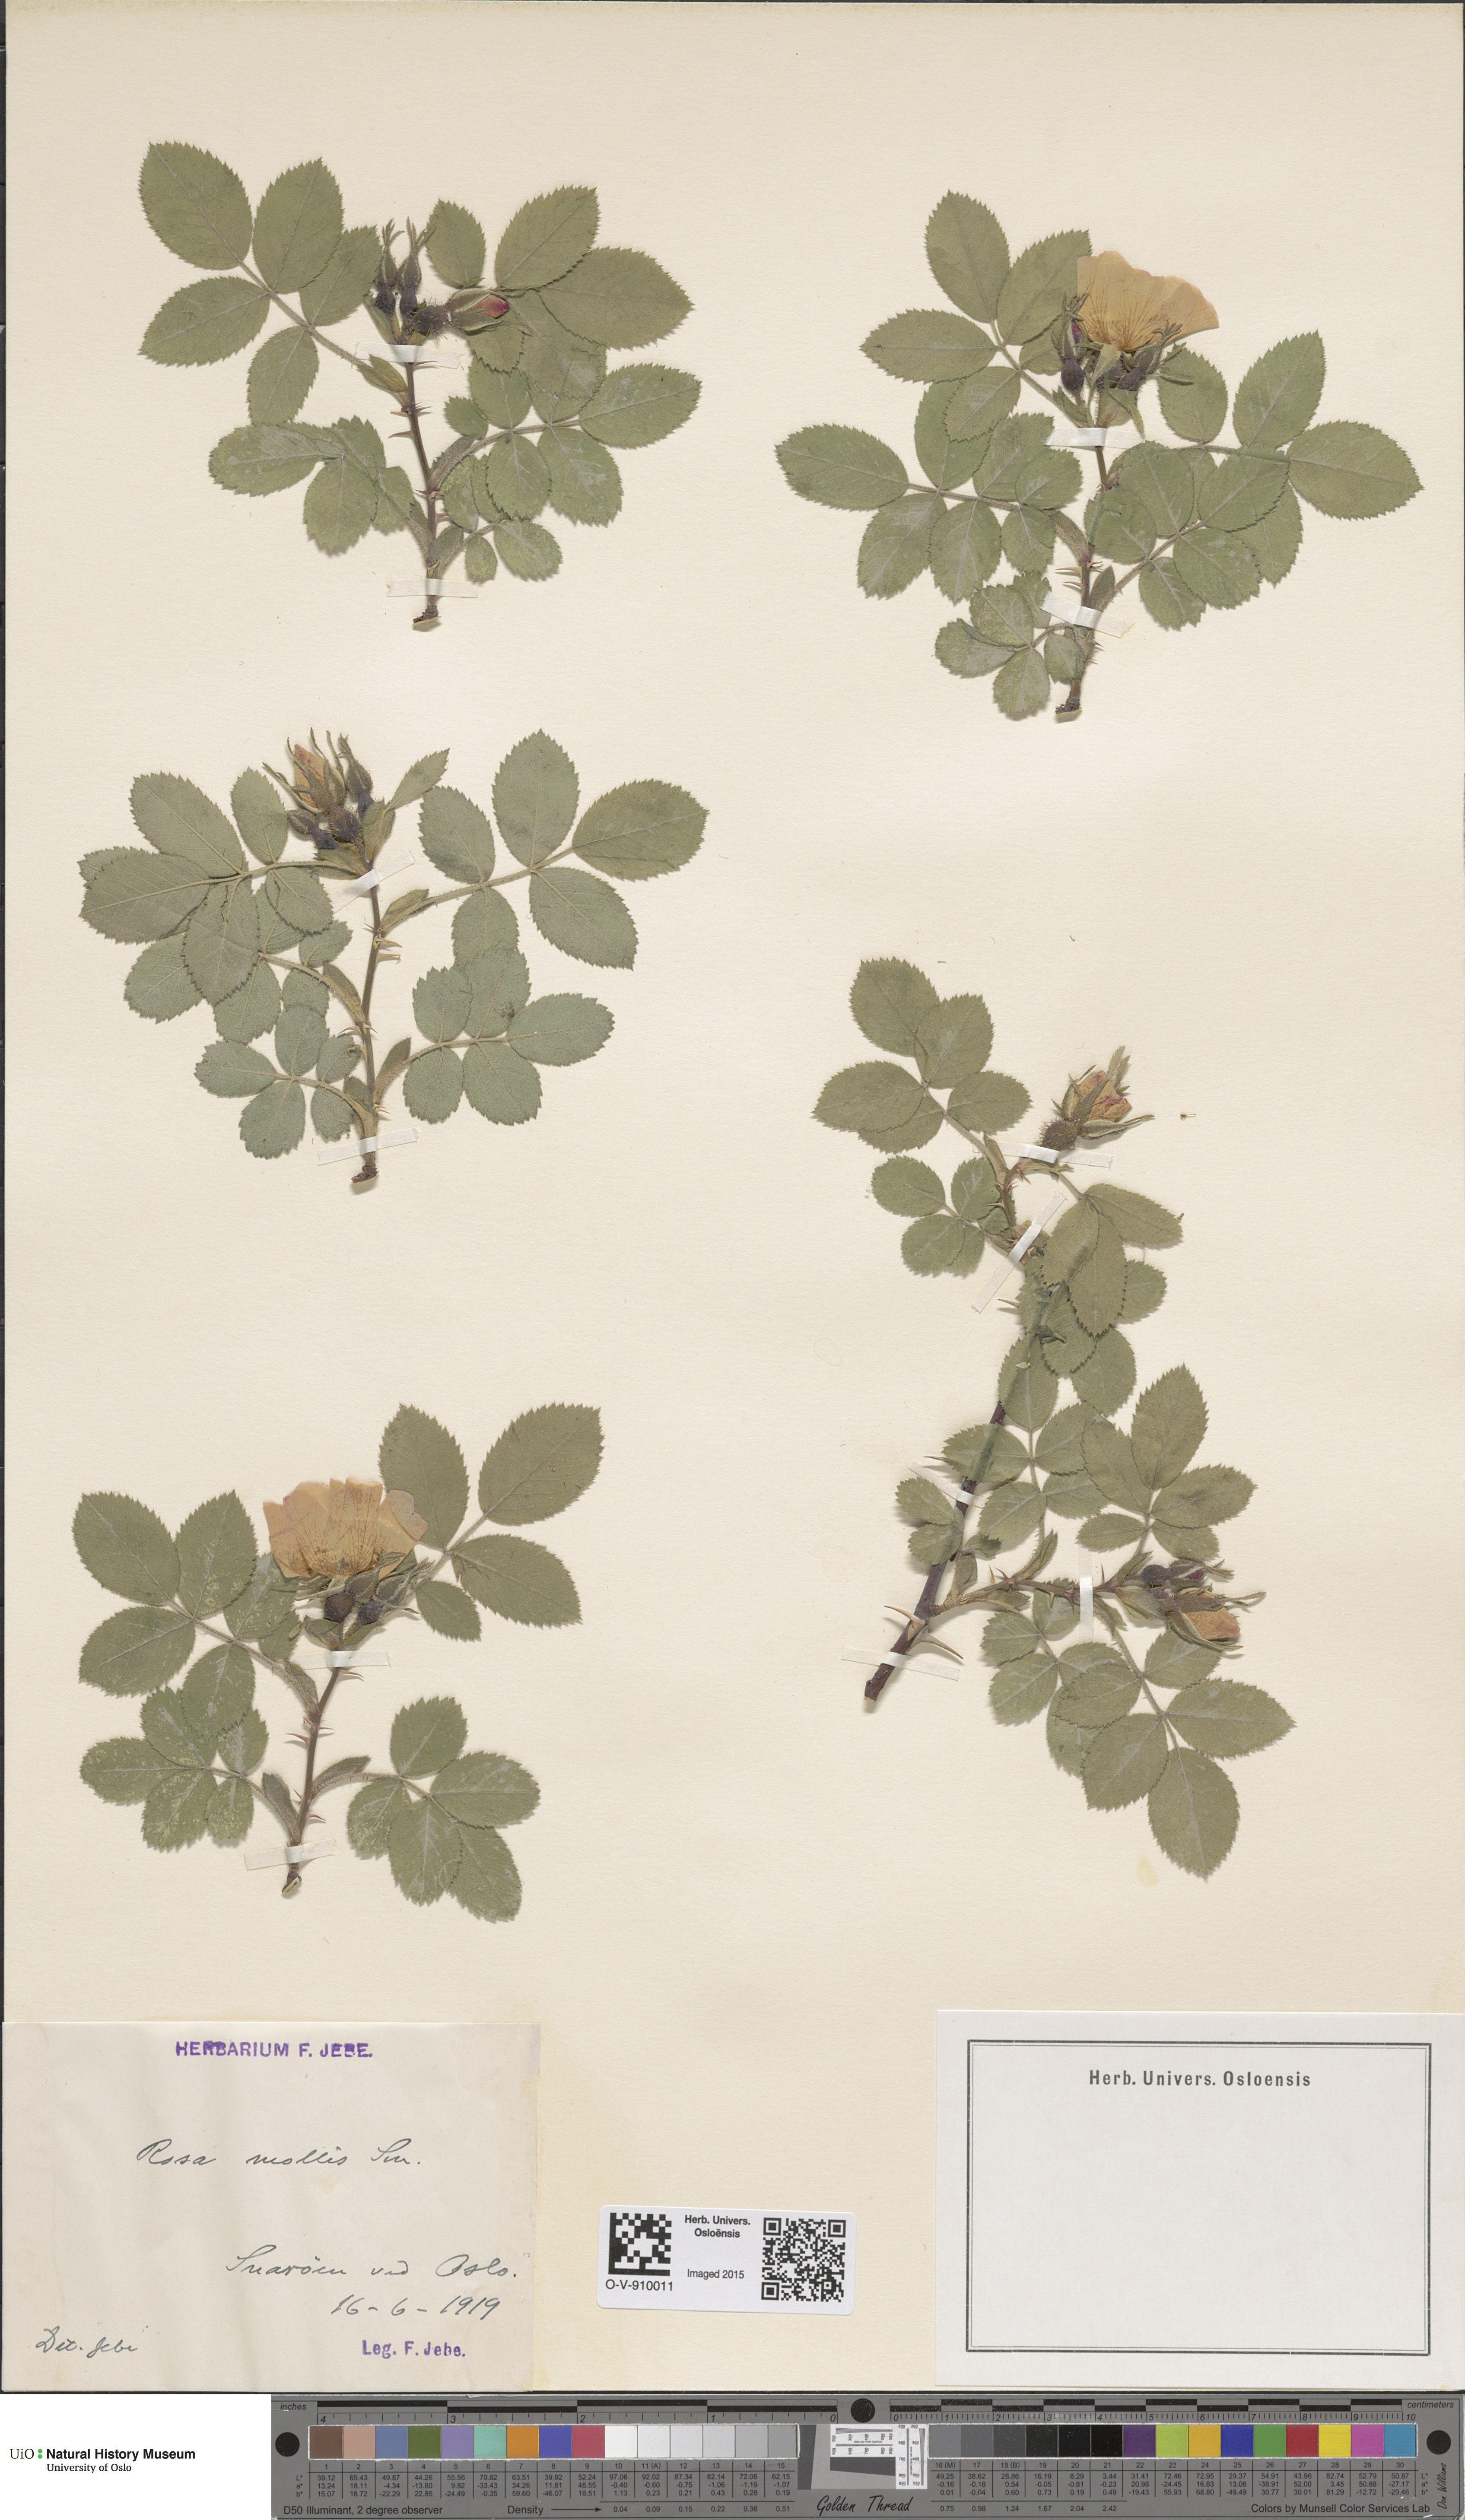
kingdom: Plantae
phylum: Tracheophyta
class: Magnoliopsida
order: Rosales
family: Rosaceae
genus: Rosa
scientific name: Rosa mollis
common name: Rose
